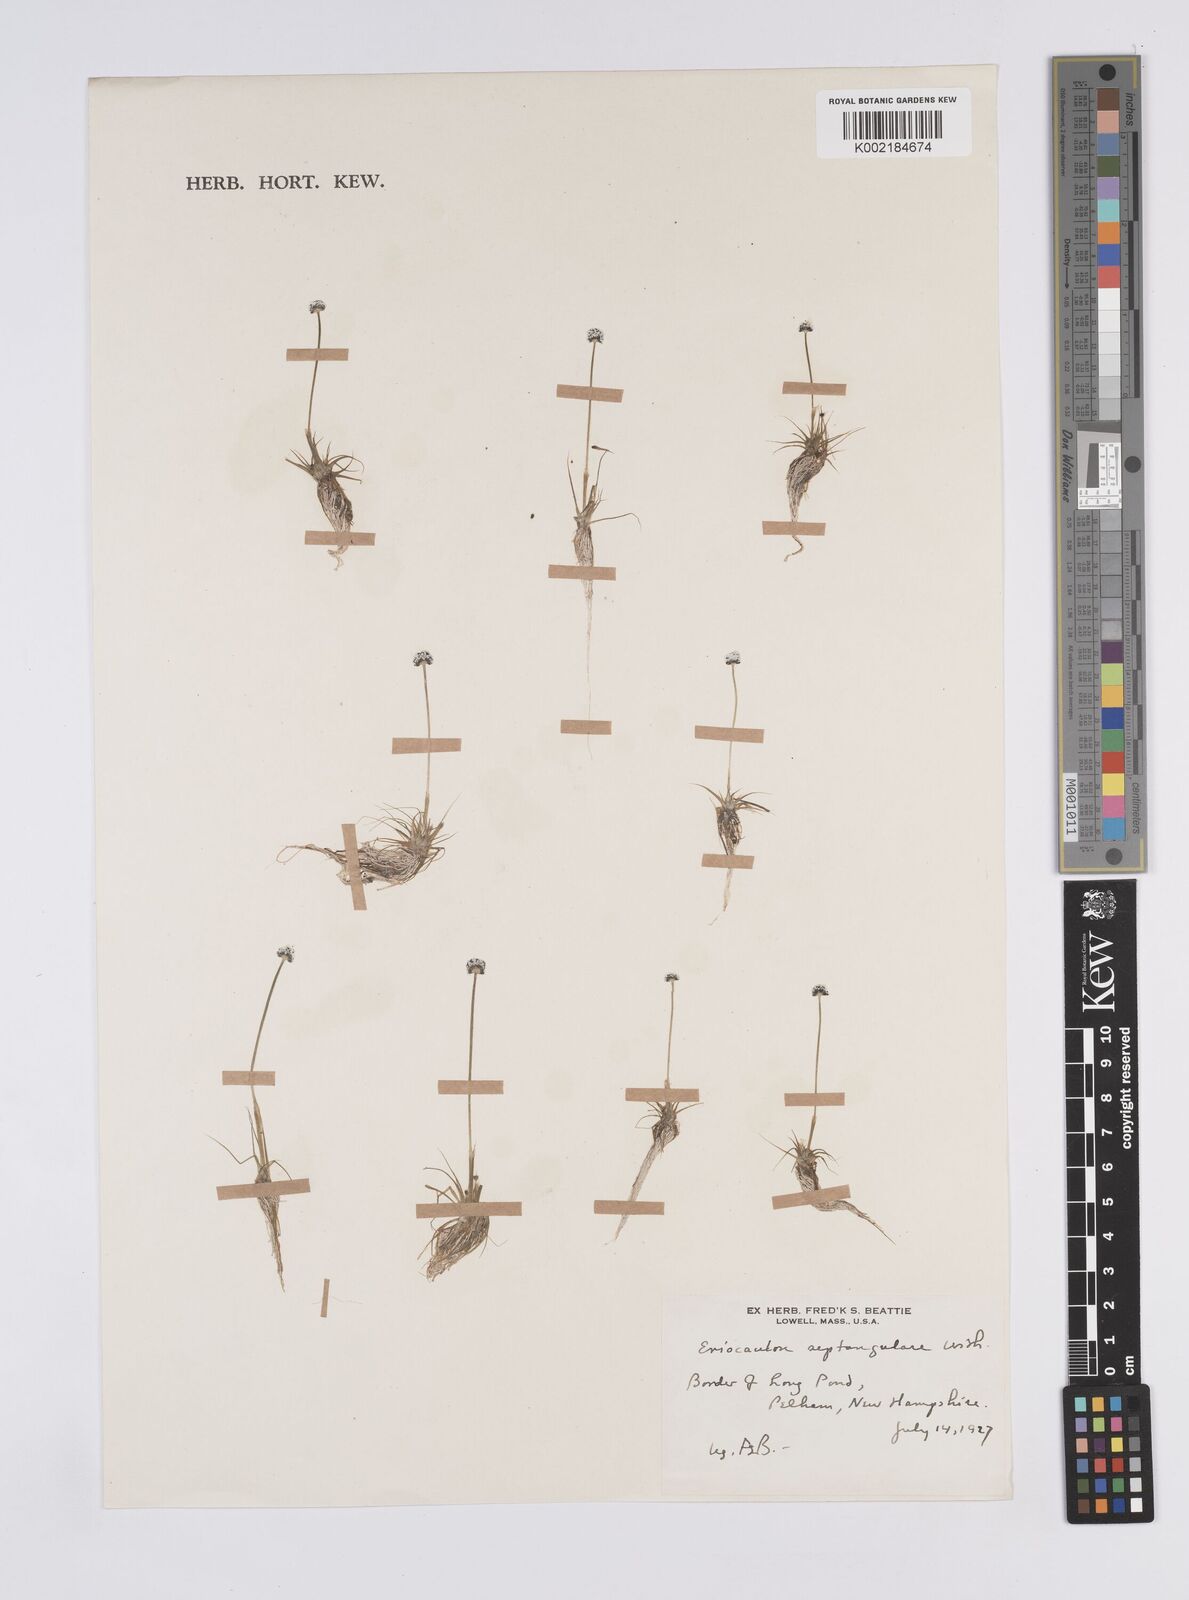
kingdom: Plantae
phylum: Tracheophyta
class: Liliopsida
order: Poales
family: Eriocaulaceae
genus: Eriocaulon
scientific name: Eriocaulon aquaticum
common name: Pipewort
